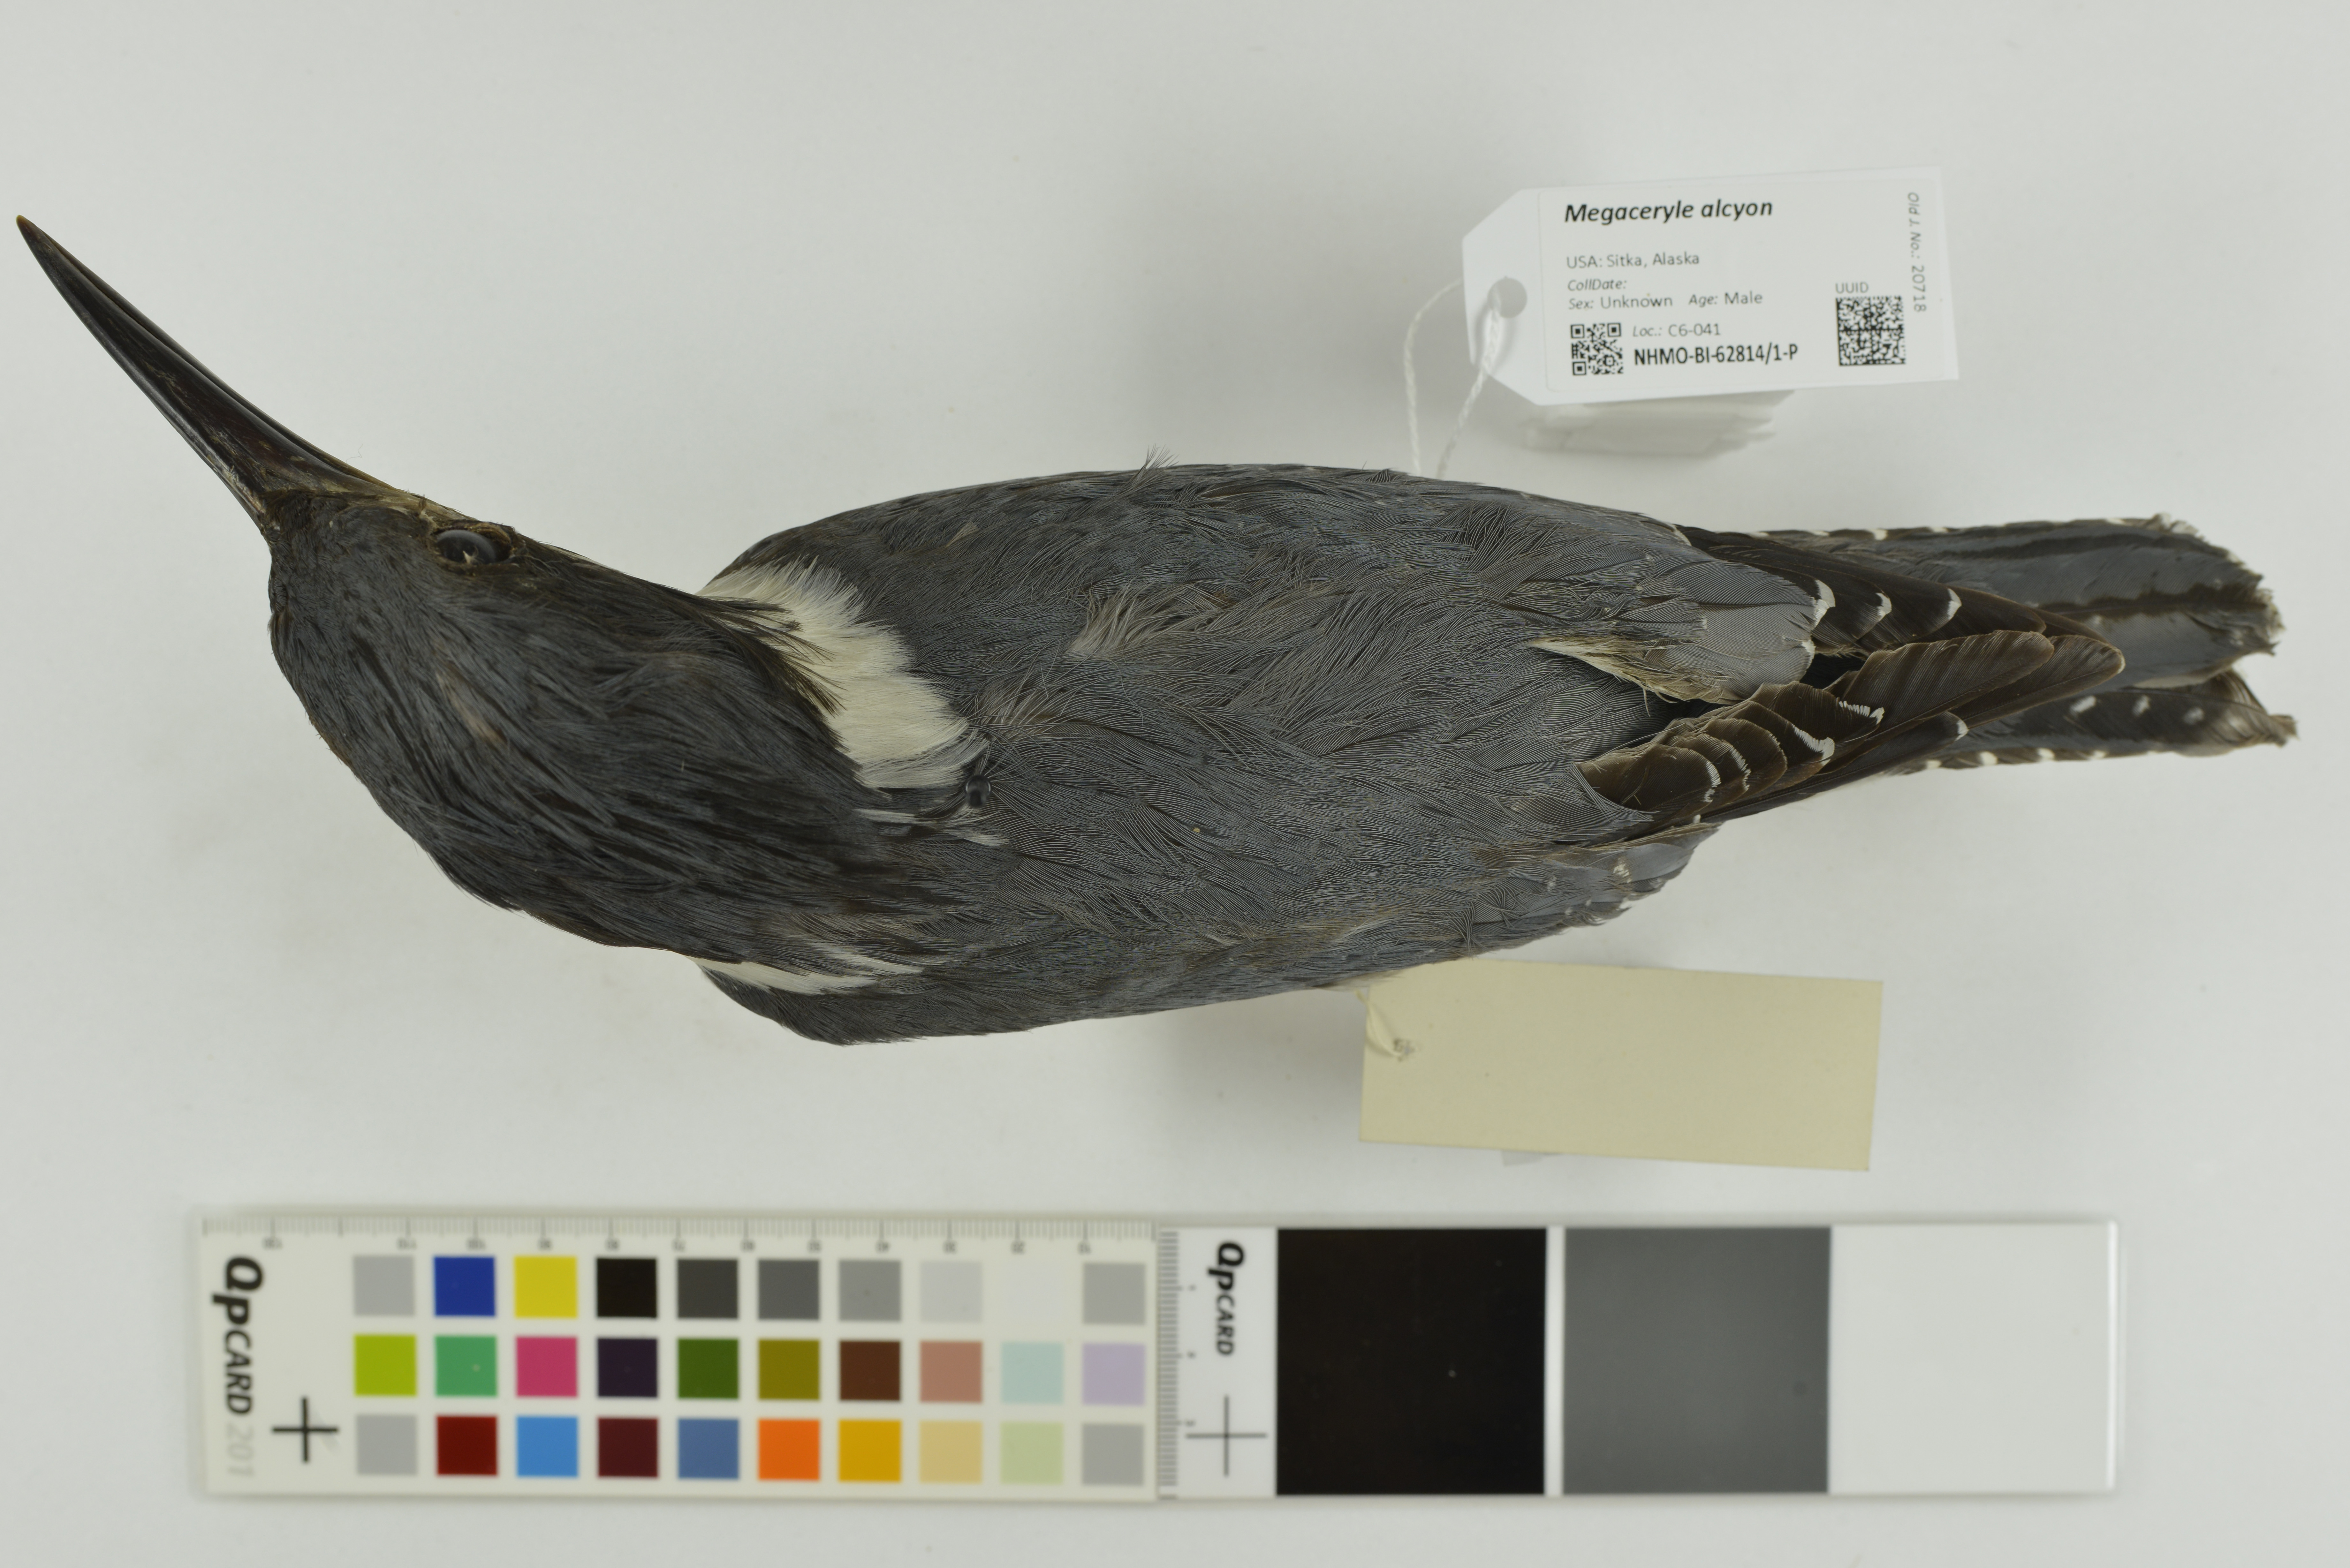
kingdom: Animalia
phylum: Chordata
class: Aves
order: Coraciiformes
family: Alcedinidae
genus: Megaceryle
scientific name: Megaceryle alcyon
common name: Belted kingfisher
